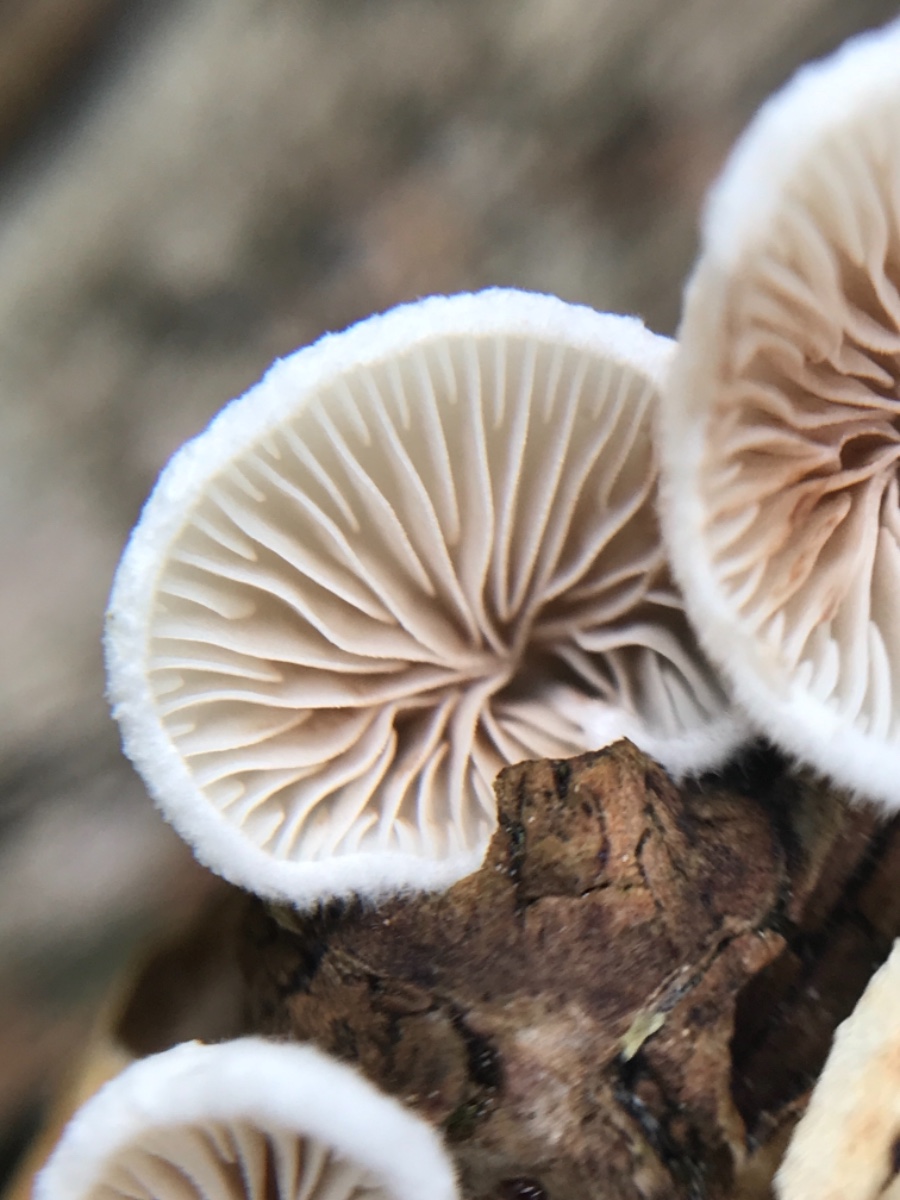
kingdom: Fungi
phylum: Basidiomycota
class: Agaricomycetes
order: Agaricales
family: Crepidotaceae
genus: Crepidotus
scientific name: Crepidotus cesatii
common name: almindelig muslingesvamp
